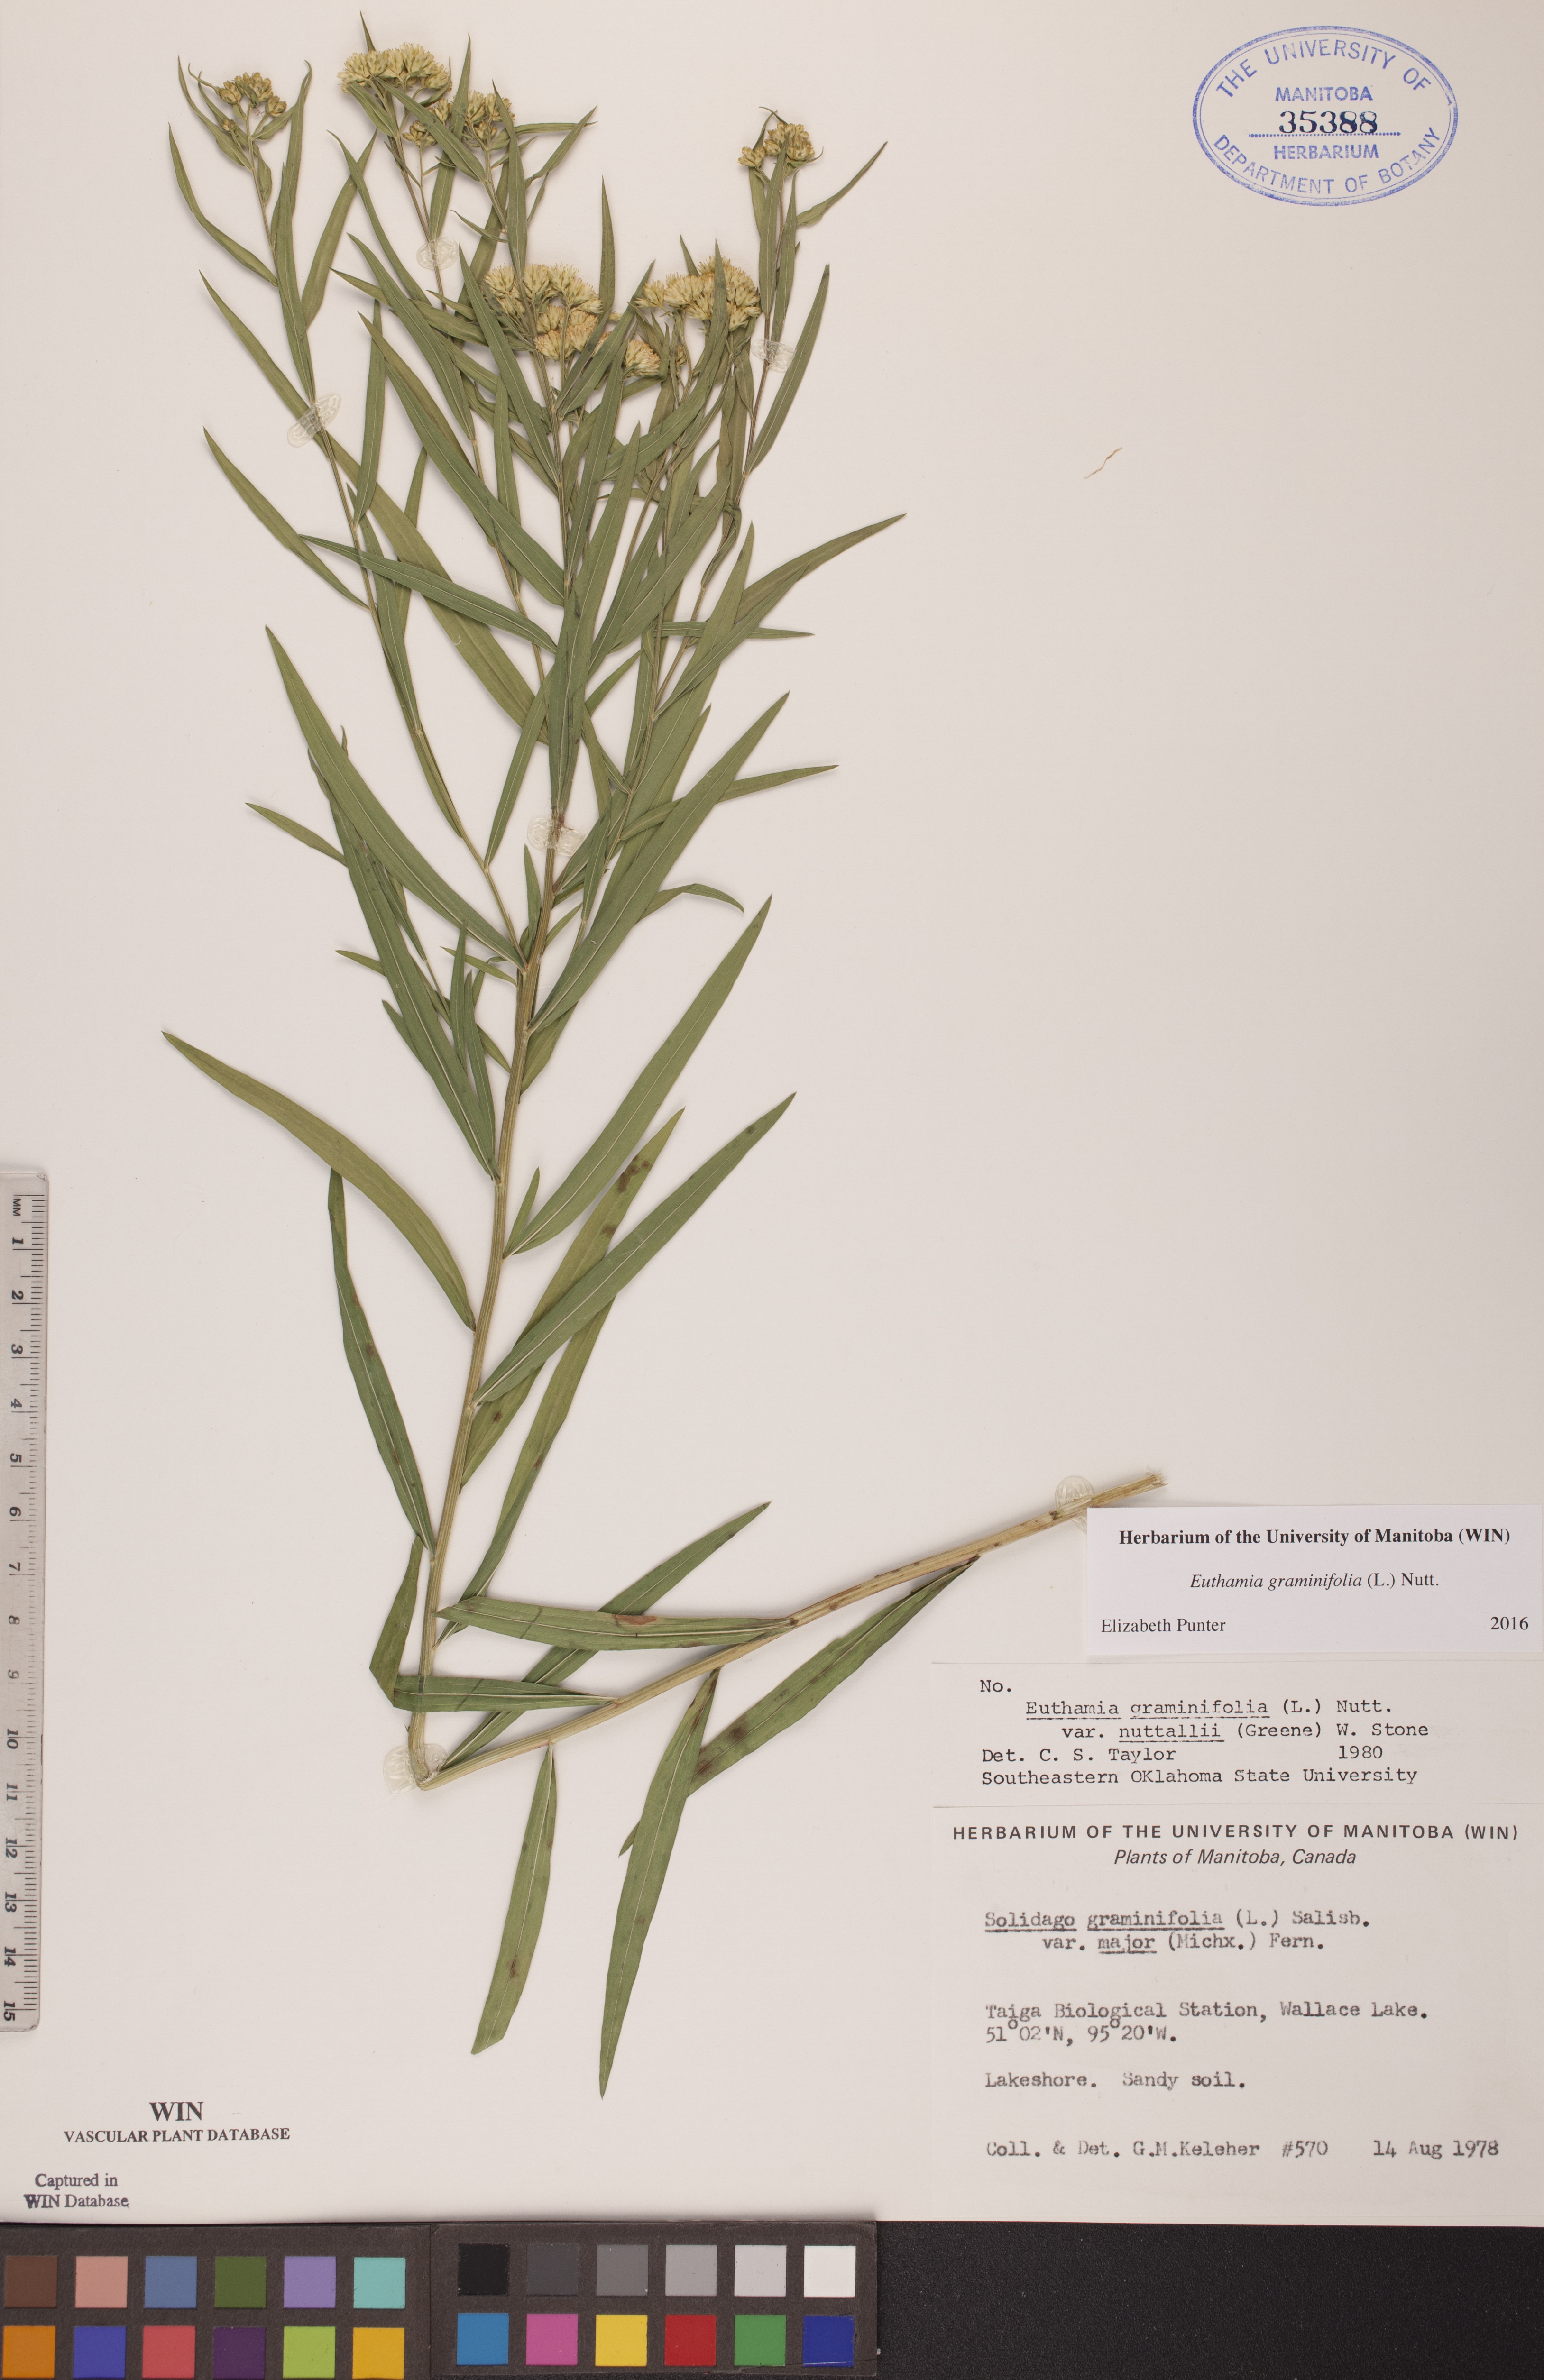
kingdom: Plantae
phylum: Tracheophyta
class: Magnoliopsida
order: Asterales
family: Asteraceae
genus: Euthamia
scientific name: Euthamia graminifolia
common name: Common goldentop
